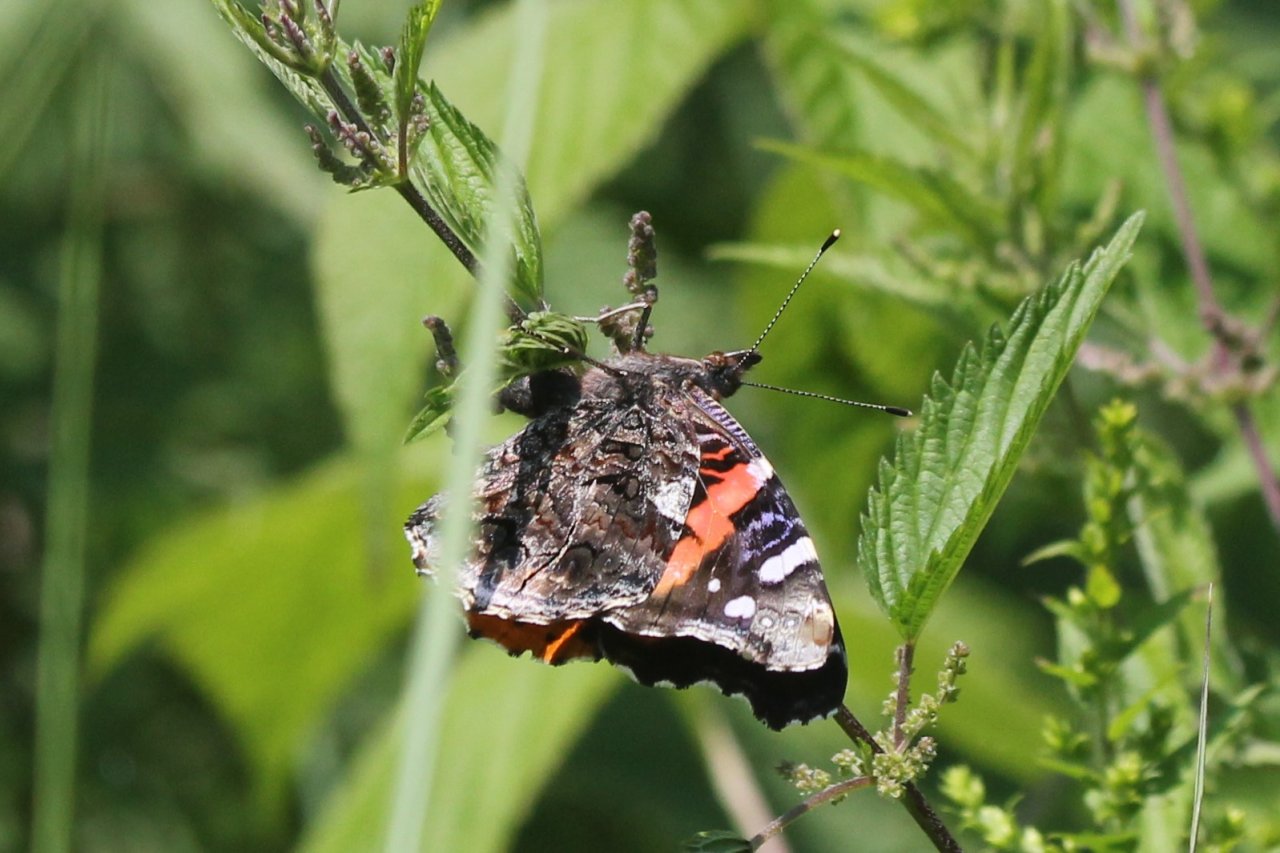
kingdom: Animalia
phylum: Arthropoda
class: Insecta
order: Lepidoptera
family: Nymphalidae
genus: Vanessa
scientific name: Vanessa atalanta
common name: Red Admiral
